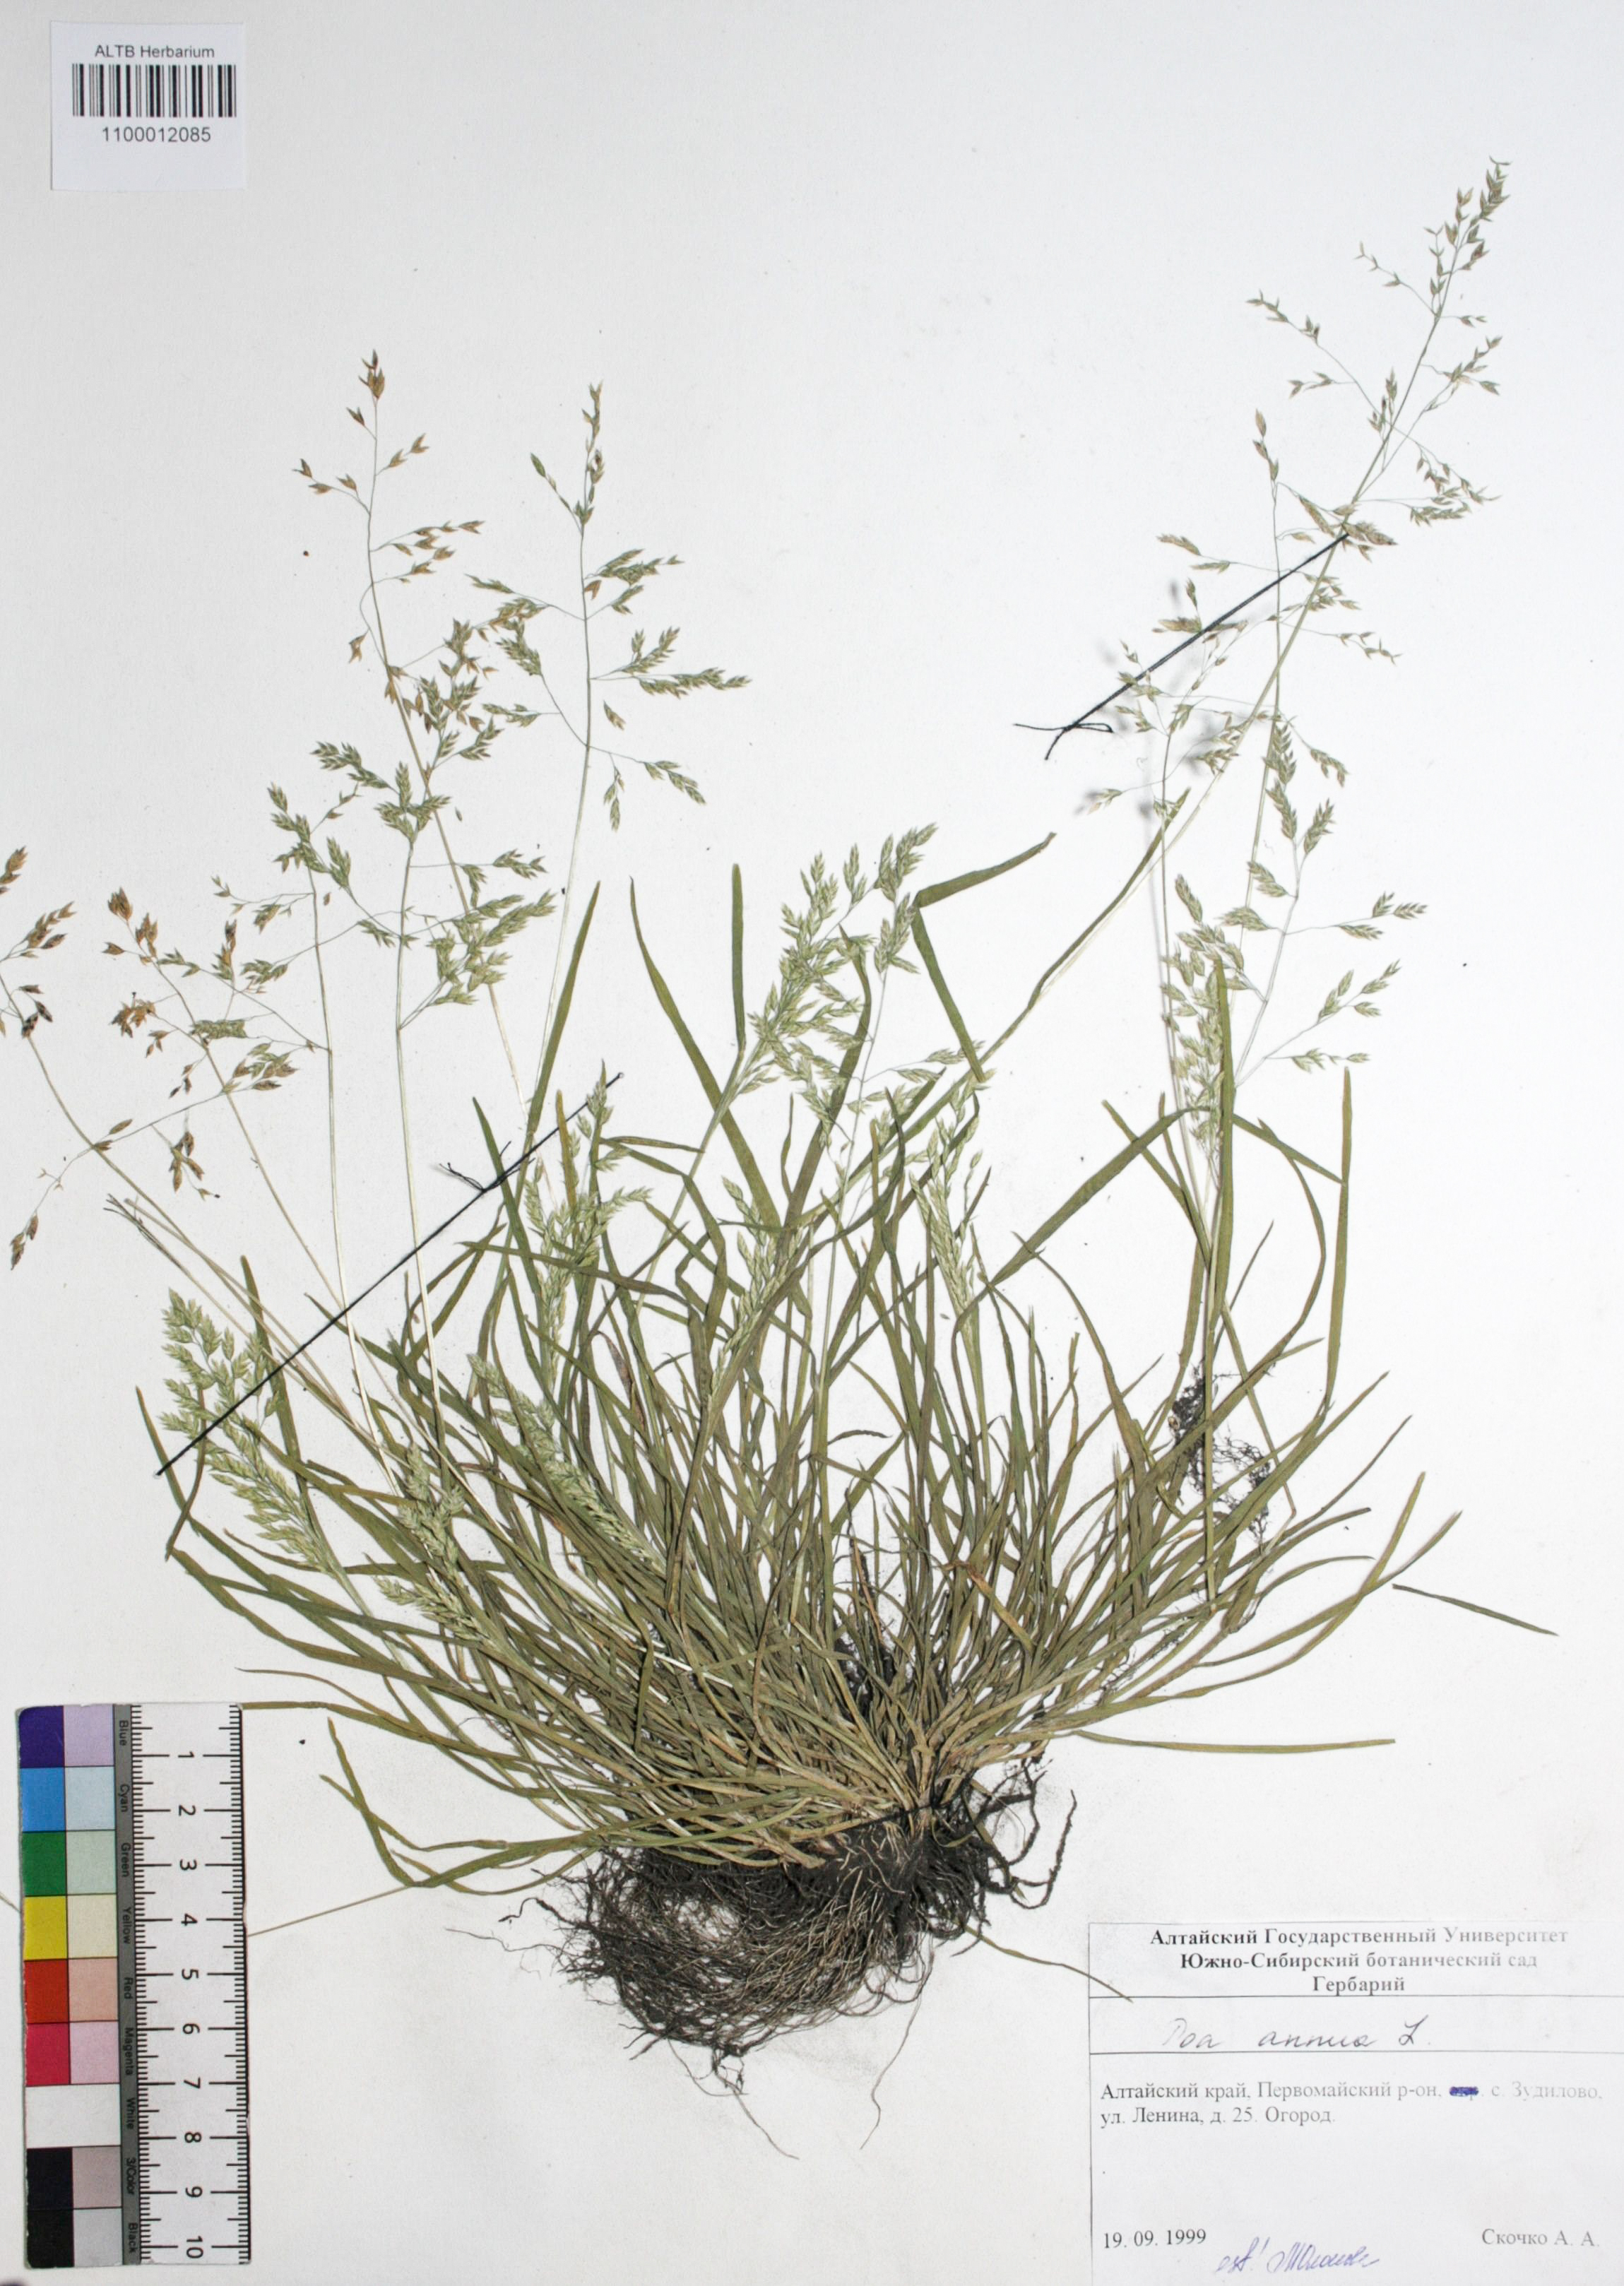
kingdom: Plantae
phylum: Tracheophyta
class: Liliopsida
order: Poales
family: Poaceae
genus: Poa
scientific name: Poa annua
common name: Annual bluegrass
